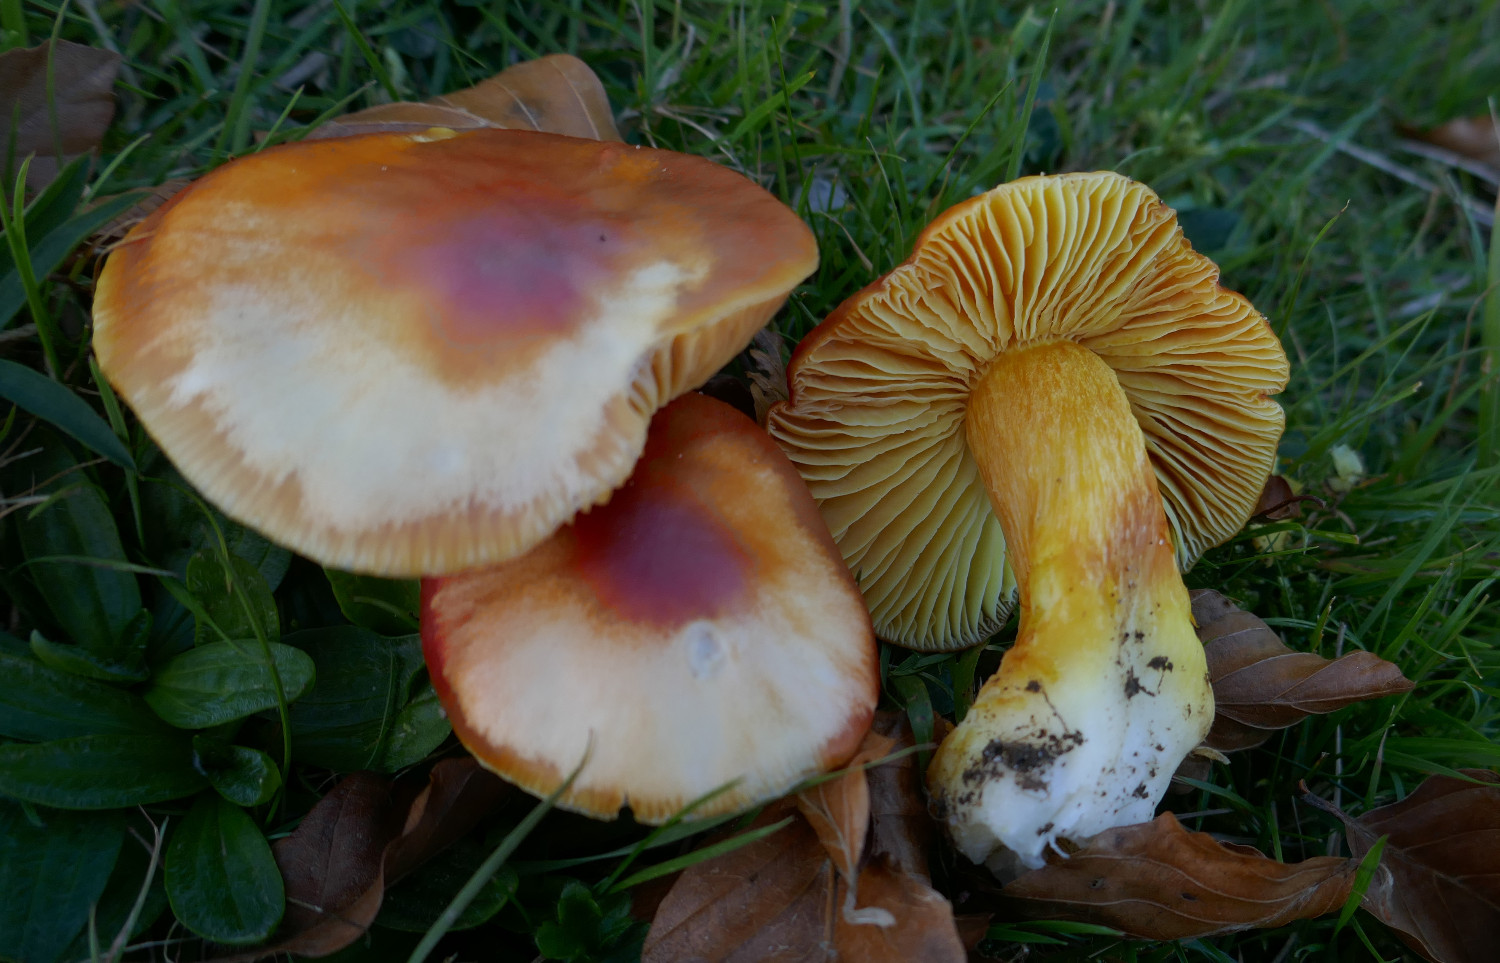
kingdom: Fungi
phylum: Basidiomycota
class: Agaricomycetes
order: Agaricales
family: Hygrophoraceae
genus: Hygrocybe
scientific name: Hygrocybe punicea
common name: skarlagen-vokshat
